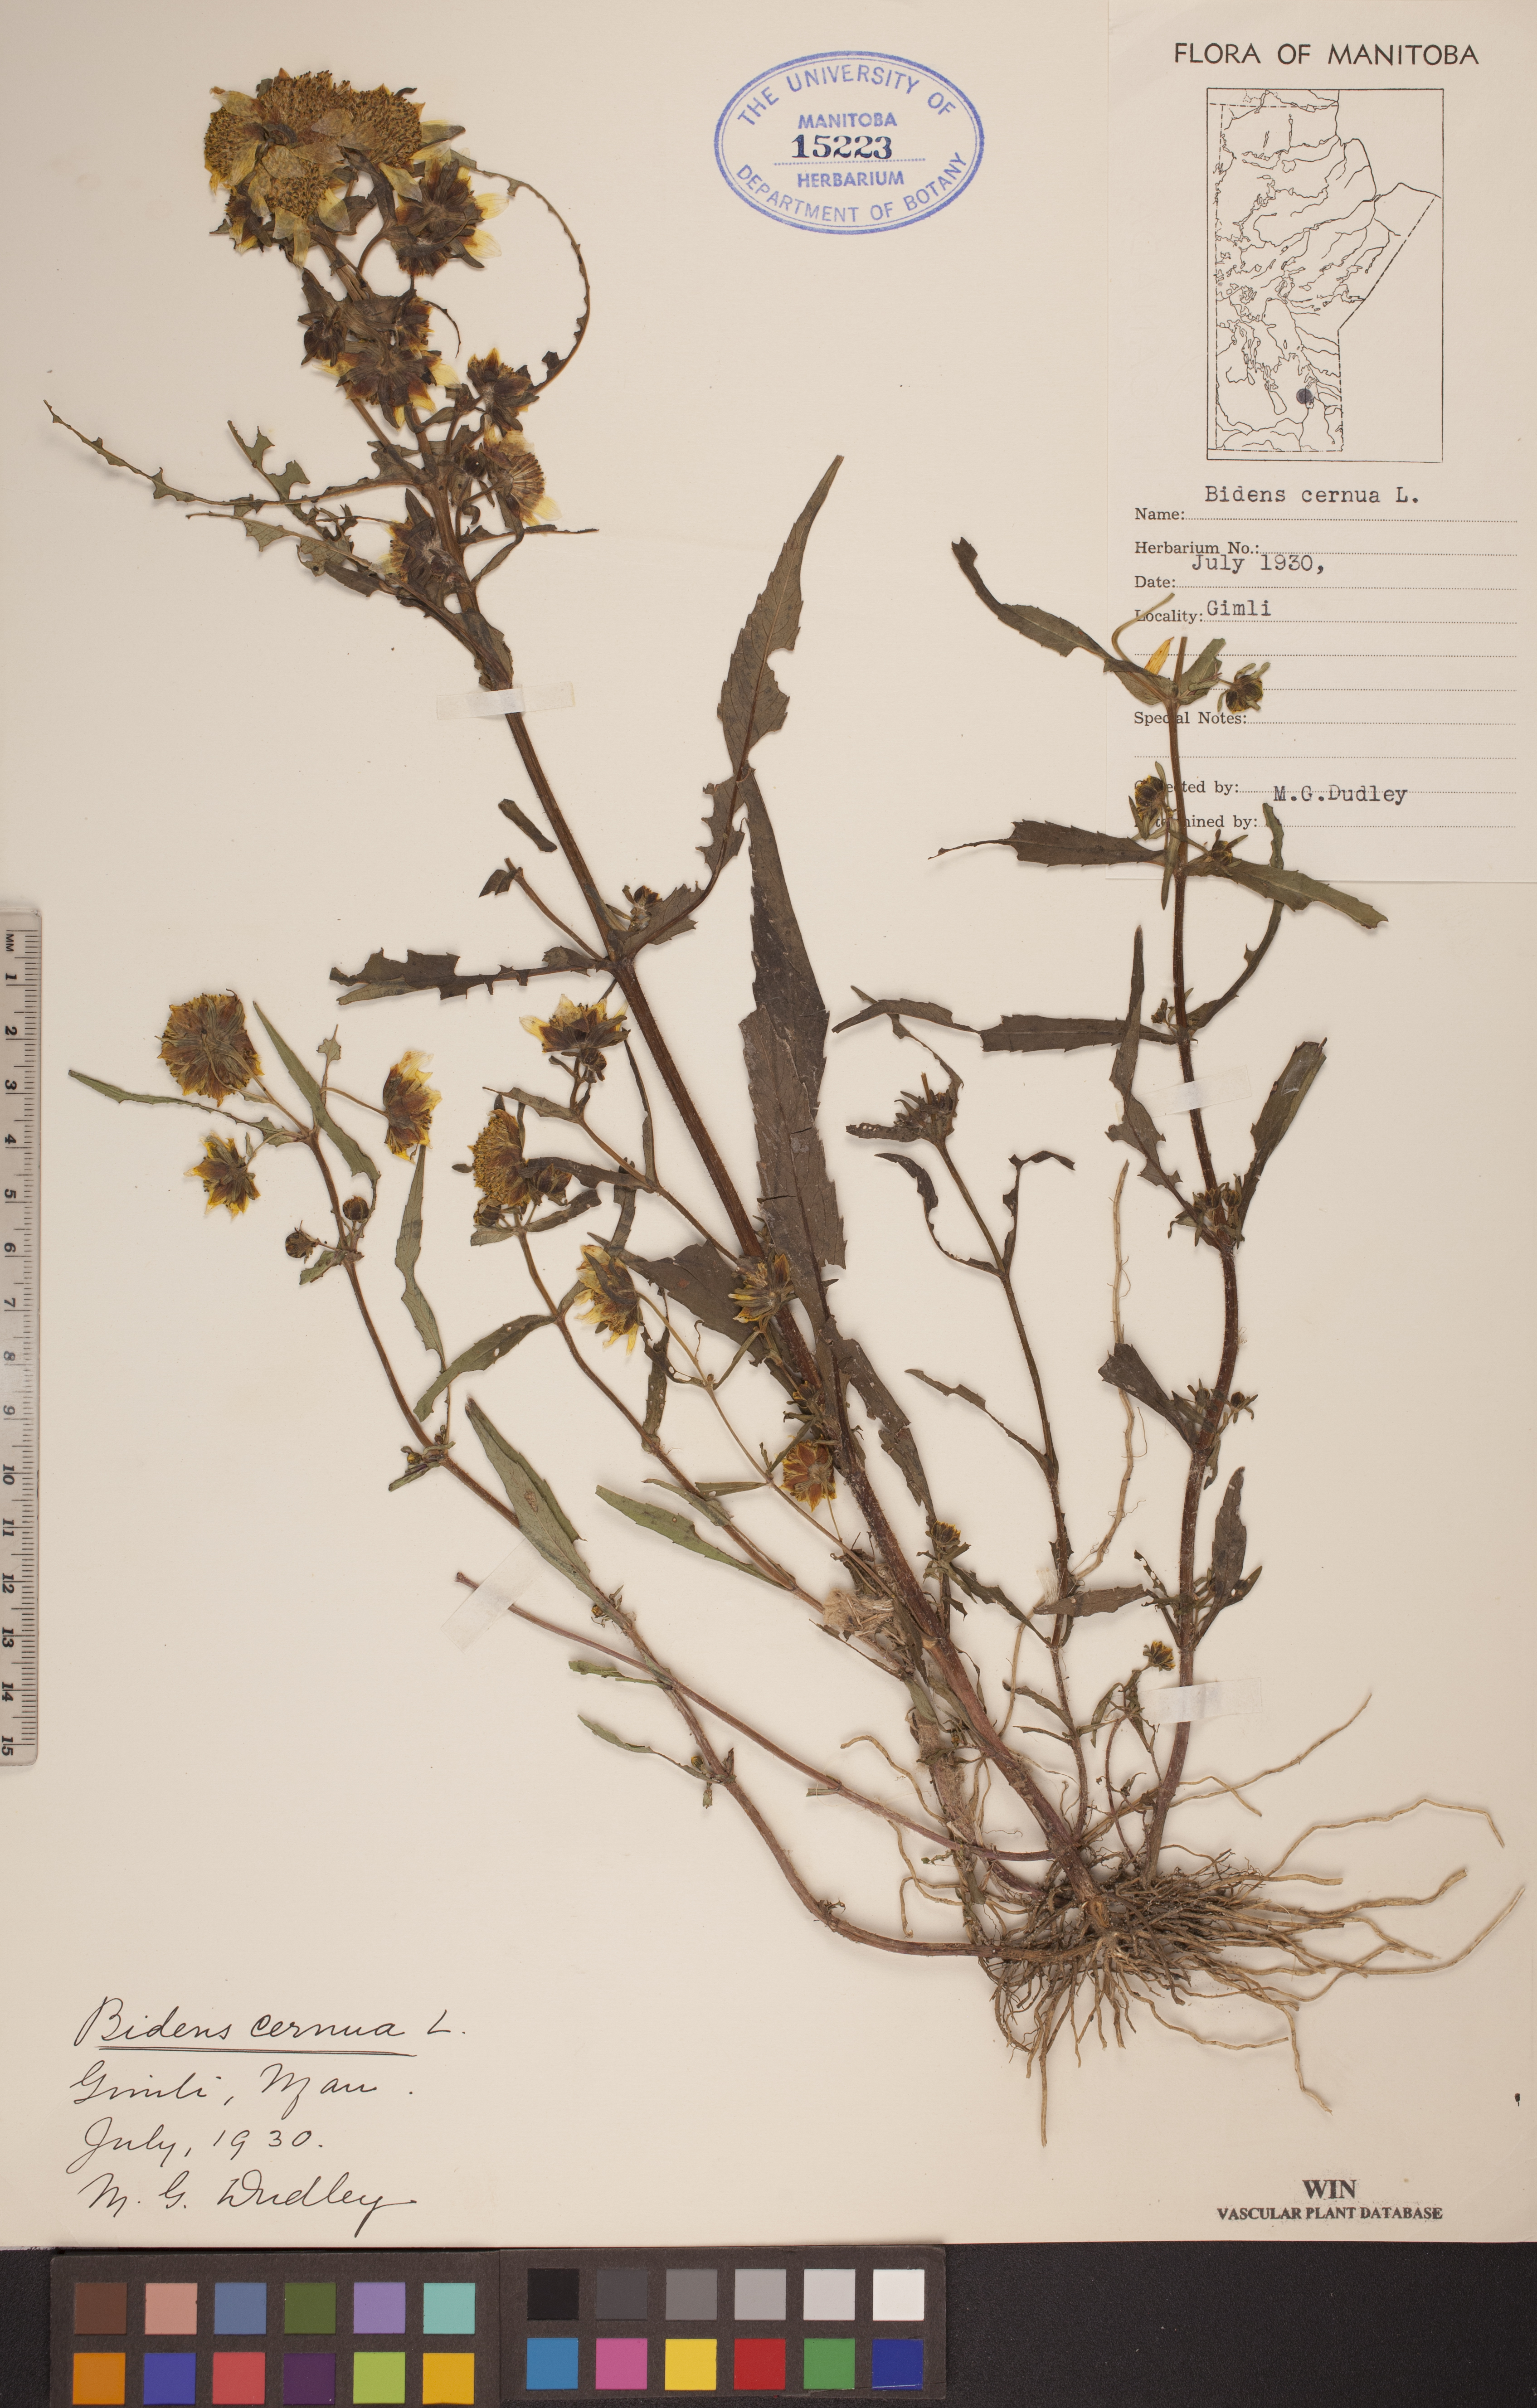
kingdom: Plantae
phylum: Tracheophyta
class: Magnoliopsida
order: Asterales
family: Asteraceae
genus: Bidens
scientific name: Bidens cernua
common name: Nodding bur-marigold
